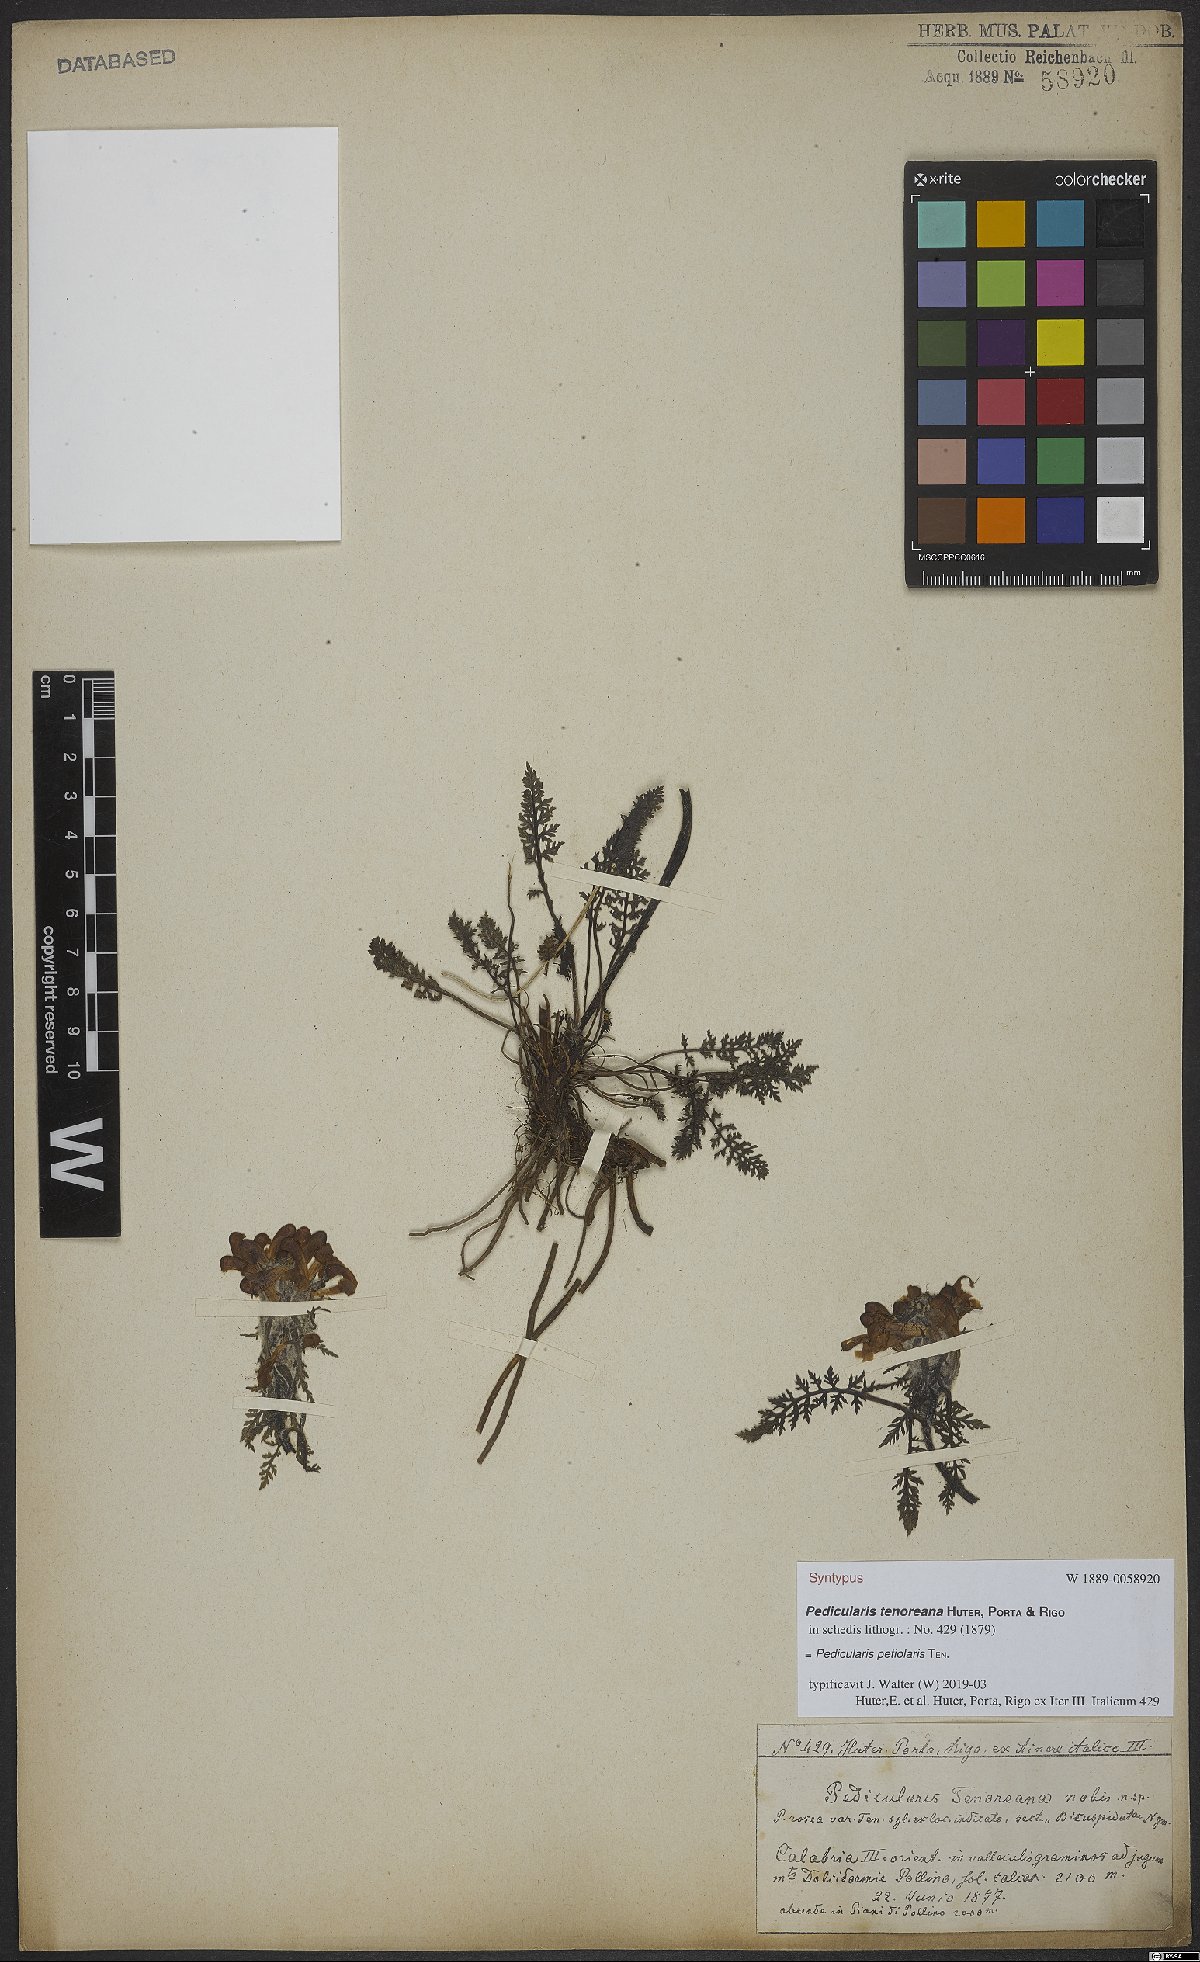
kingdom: Plantae
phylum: Tracheophyta
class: Magnoliopsida
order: Lamiales
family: Orobanchaceae
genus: Pedicularis
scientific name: Pedicularis petiolaris
